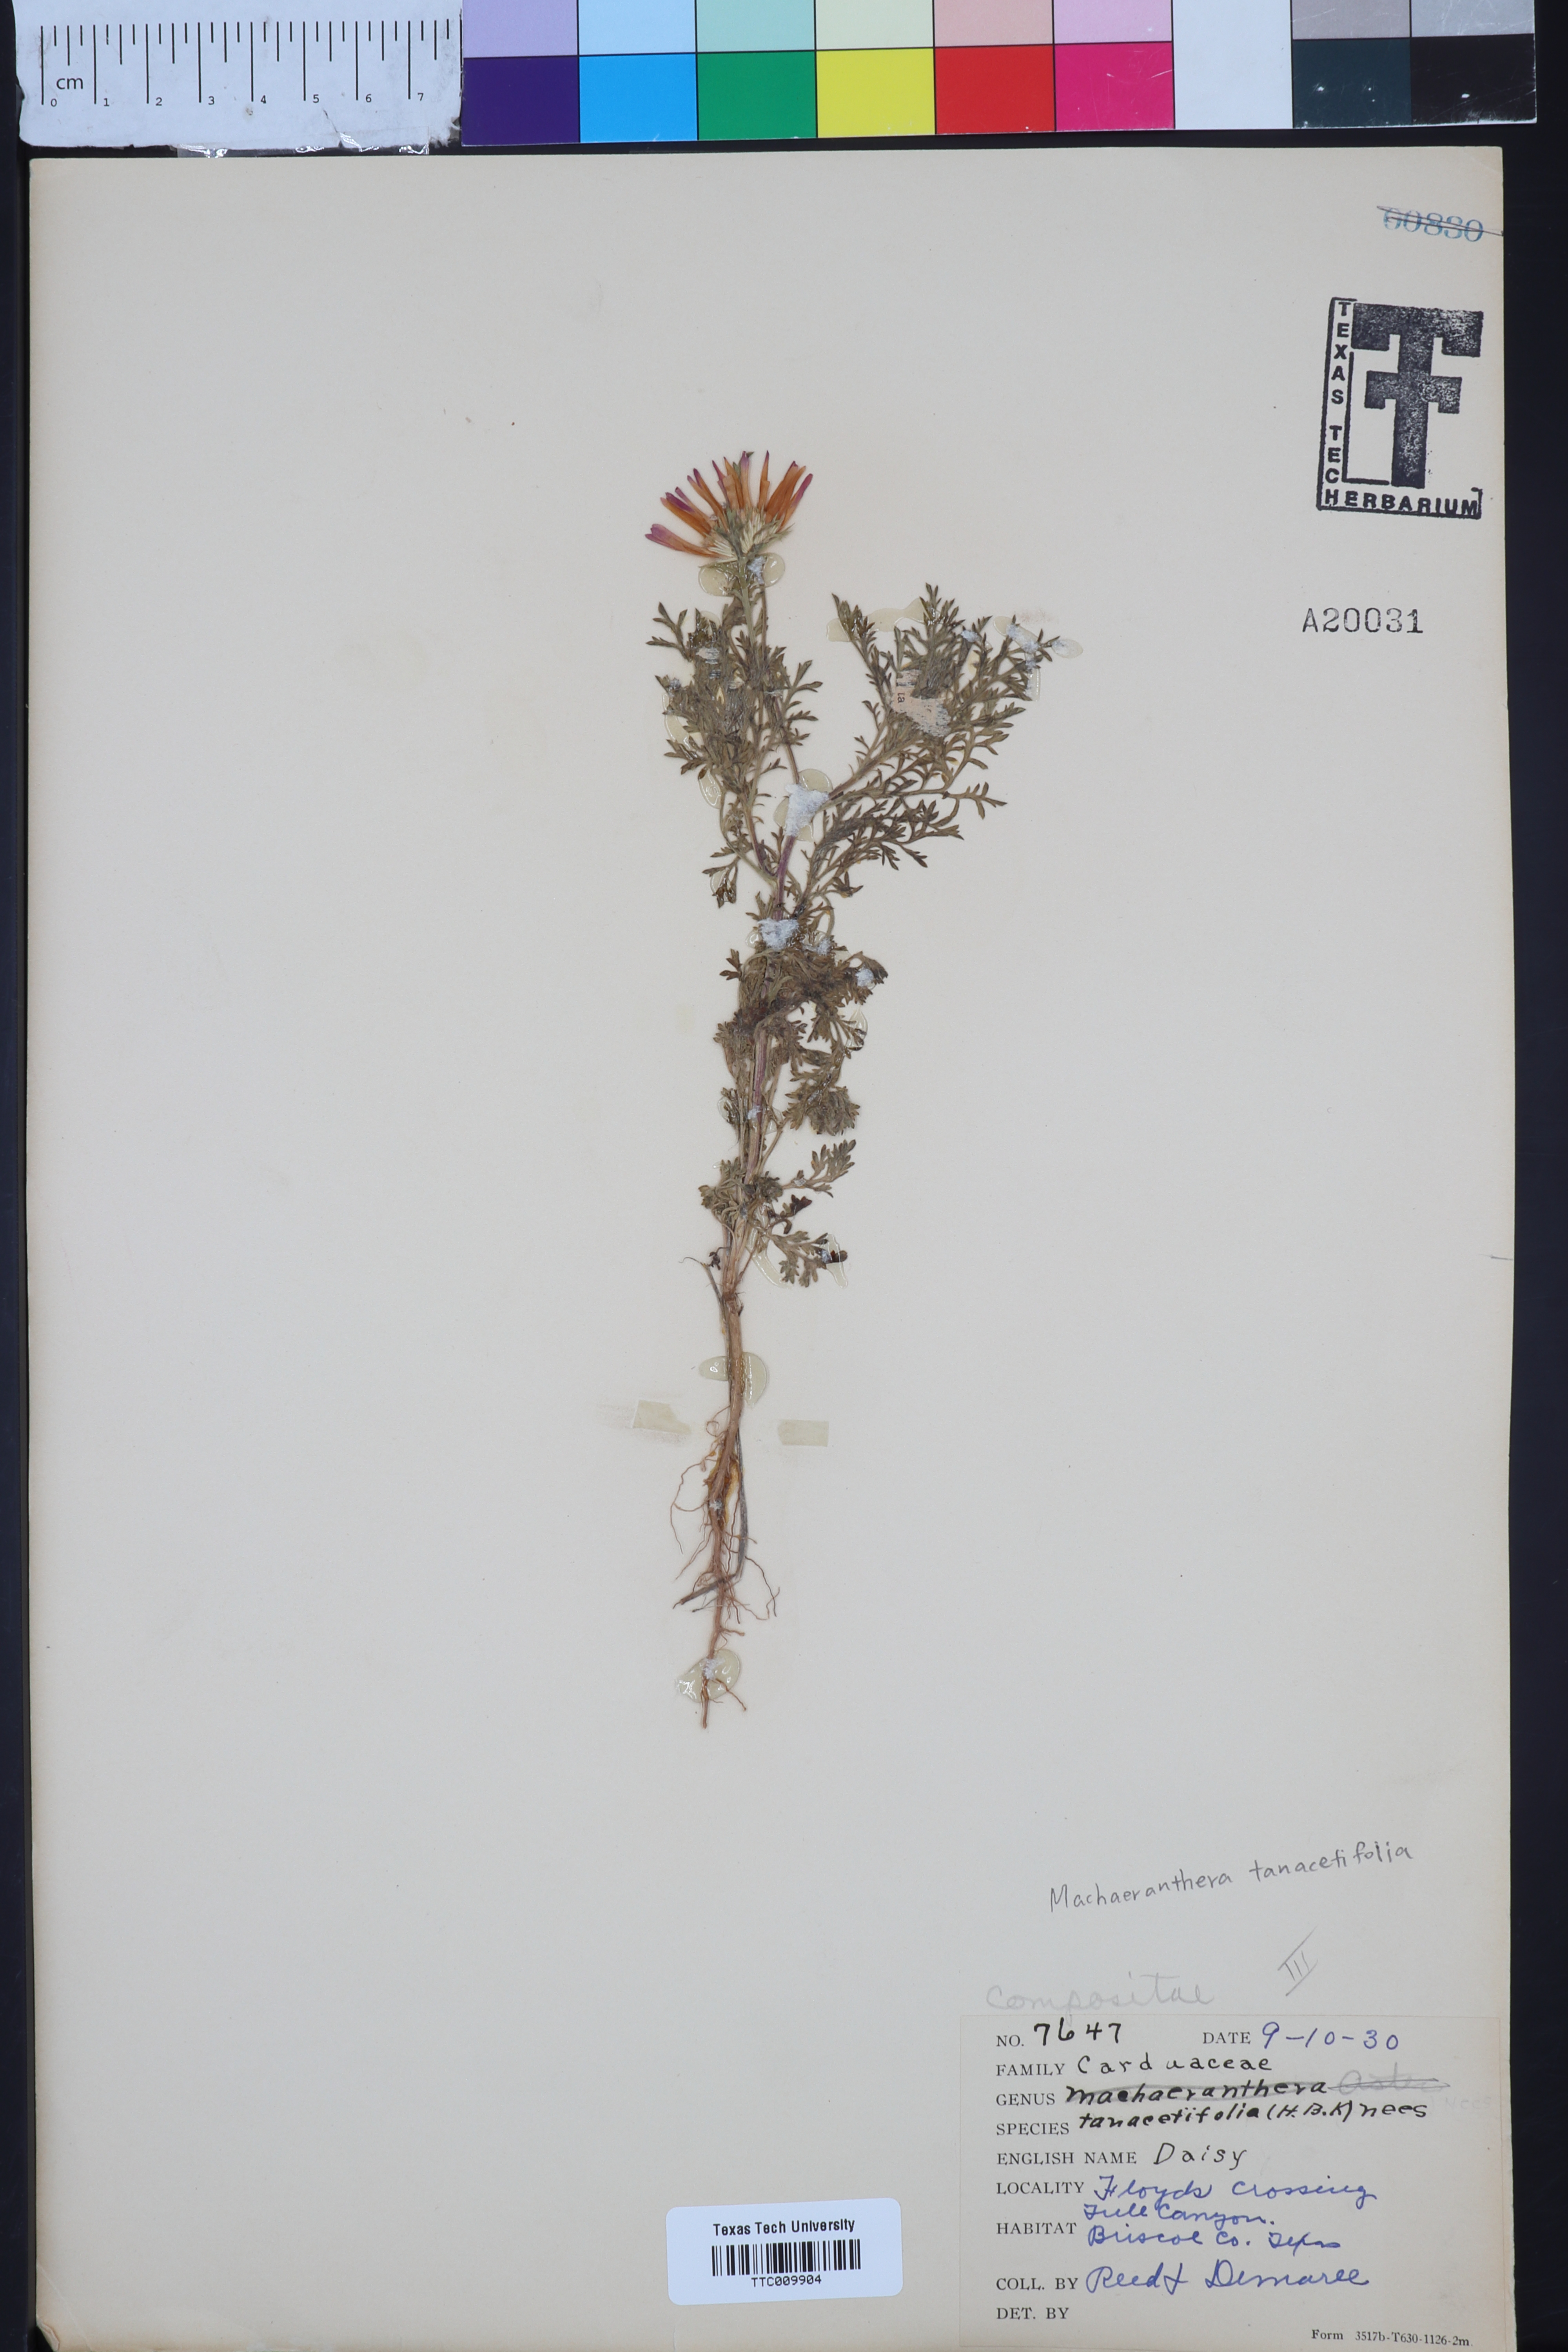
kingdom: Plantae
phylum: Tracheophyta
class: Magnoliopsida
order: Asterales
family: Asteraceae
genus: Machaeranthera
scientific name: Machaeranthera tanacetifolia
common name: Tansy-aster
